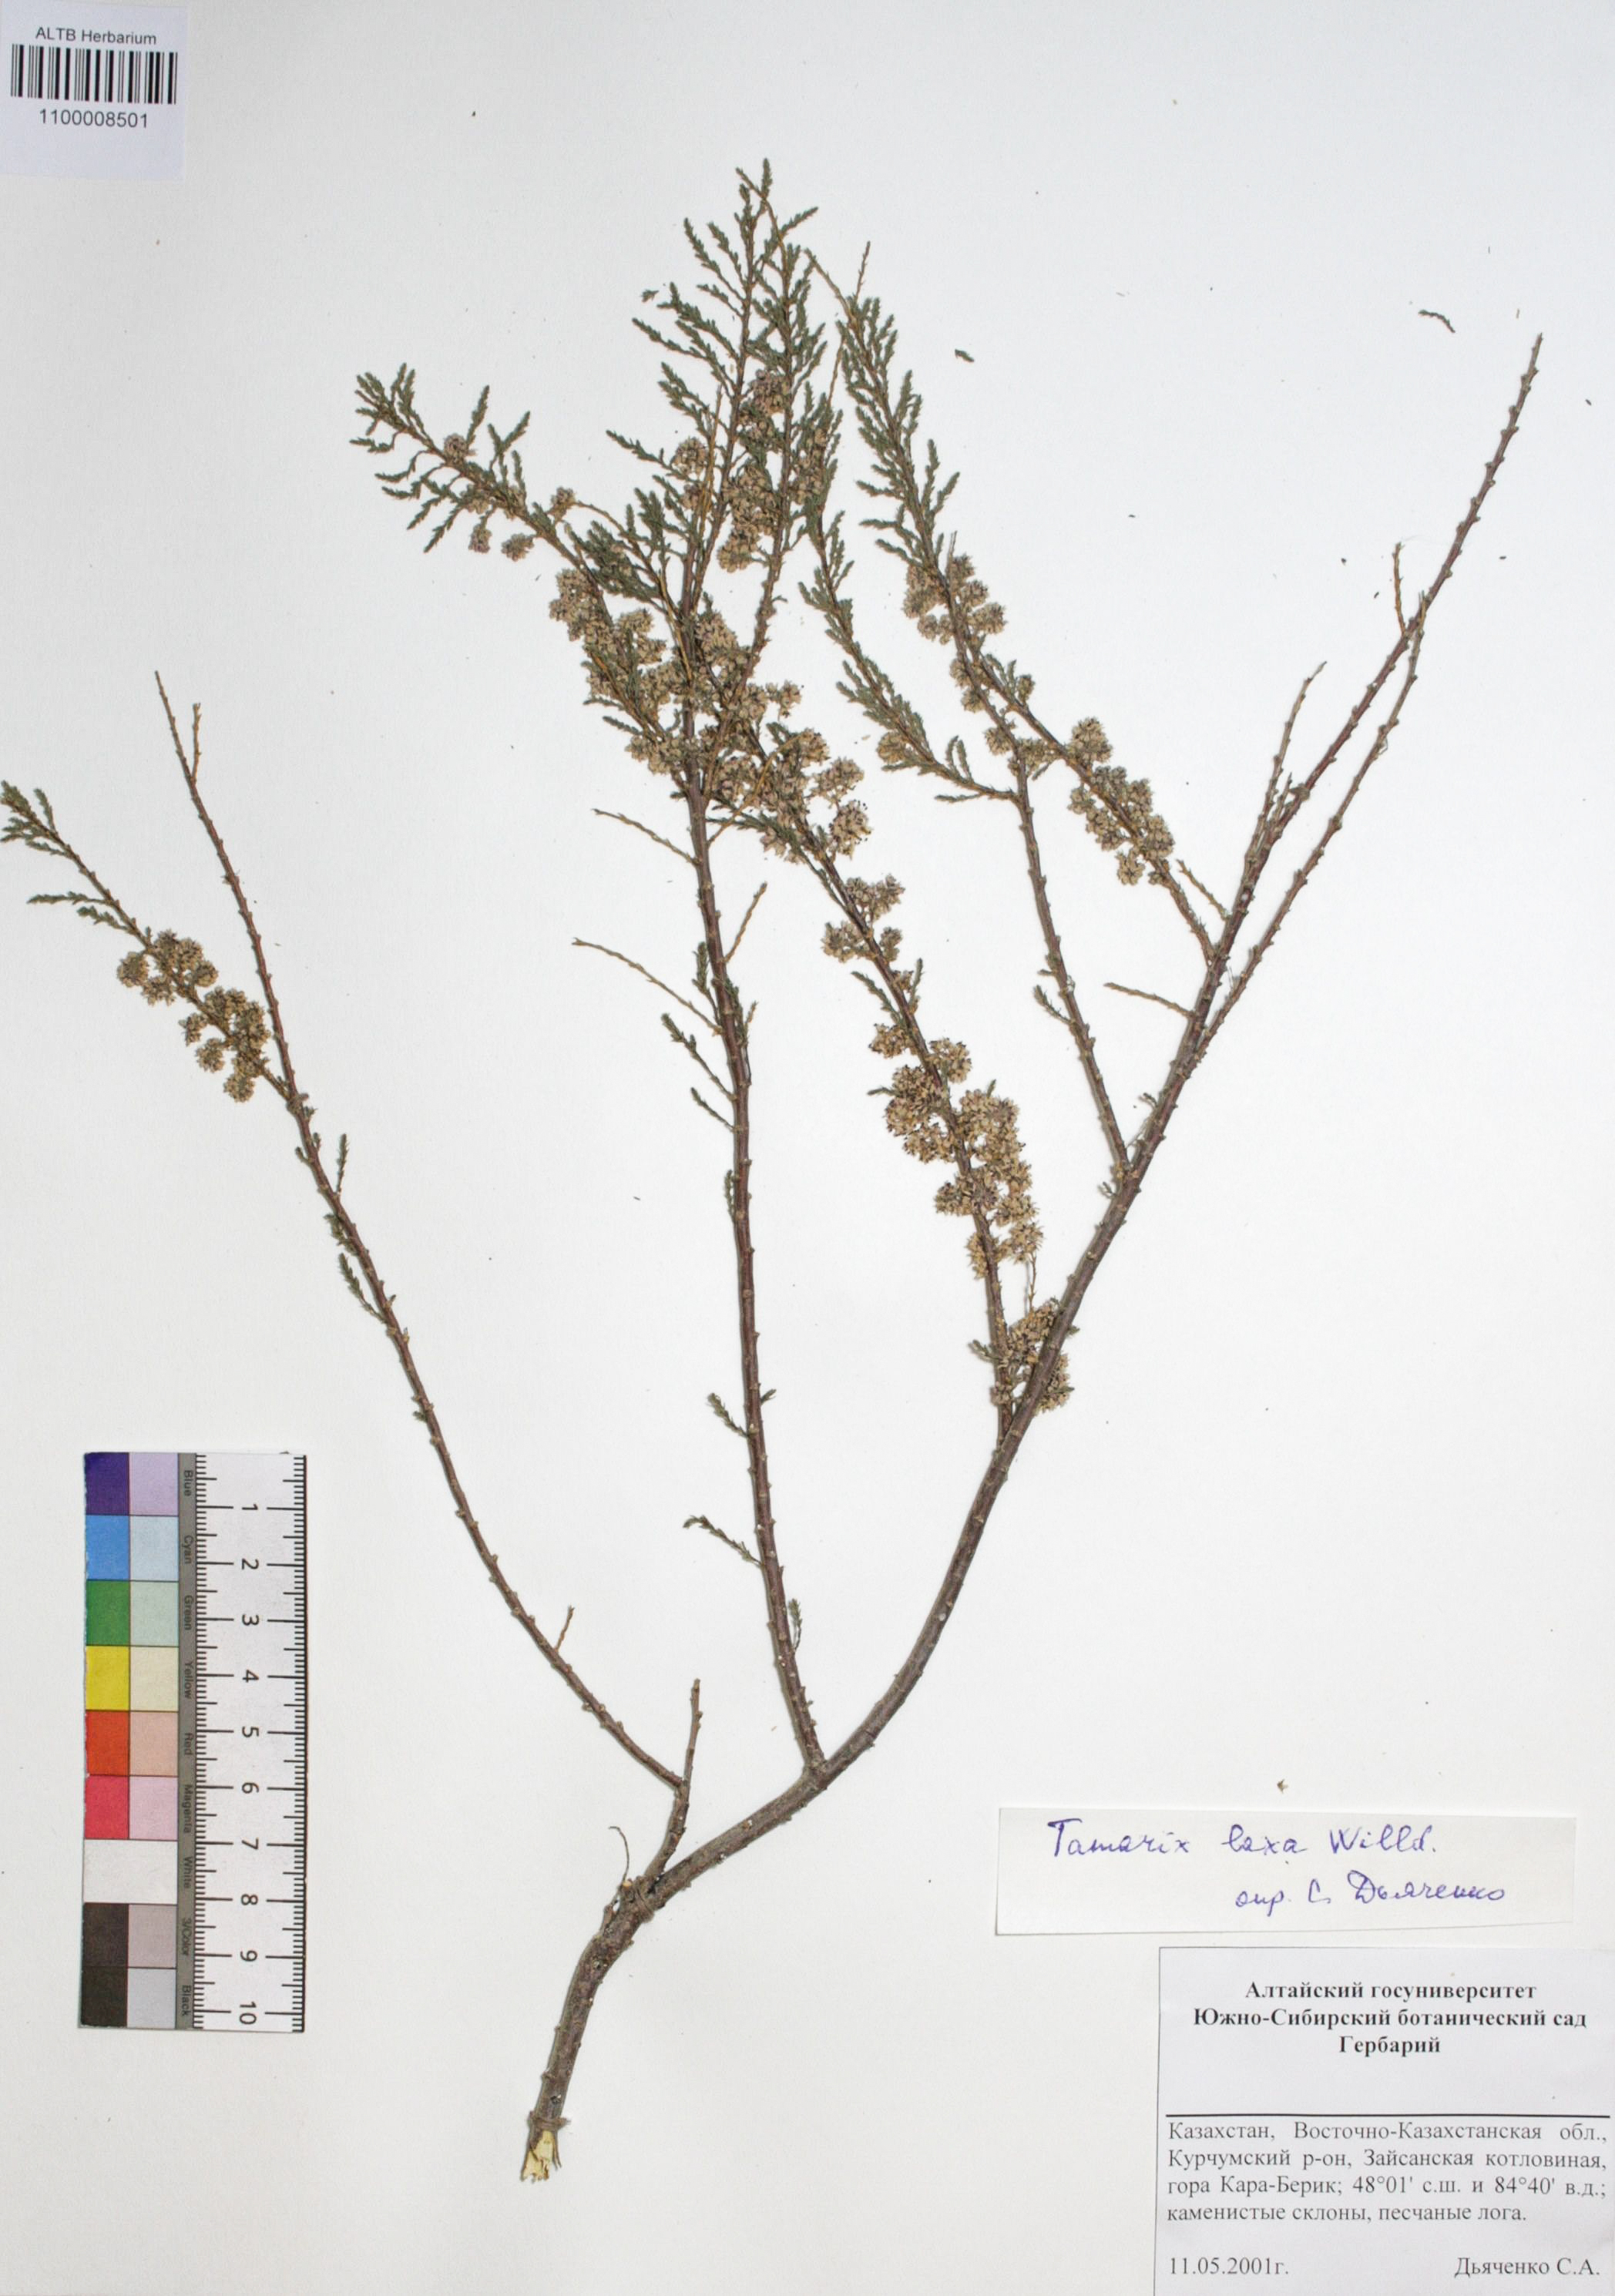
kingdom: Plantae
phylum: Tracheophyta
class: Magnoliopsida
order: Caryophyllales
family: Tamaricaceae
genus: Tamarix
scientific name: Tamarix laxa
